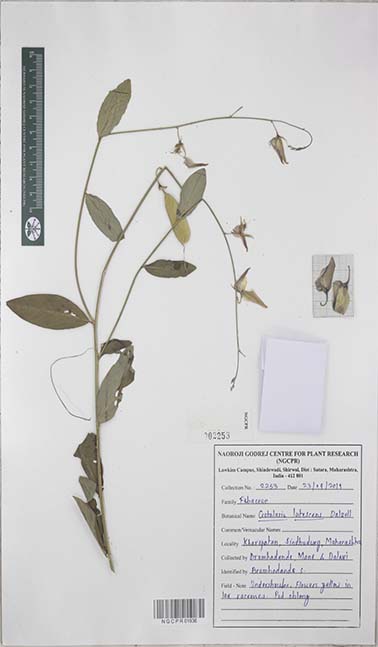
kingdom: Plantae
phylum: Tracheophyta
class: Magnoliopsida
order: Fabales
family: Fabaceae
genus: Crotalaria
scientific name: Crotalaria lutescens
